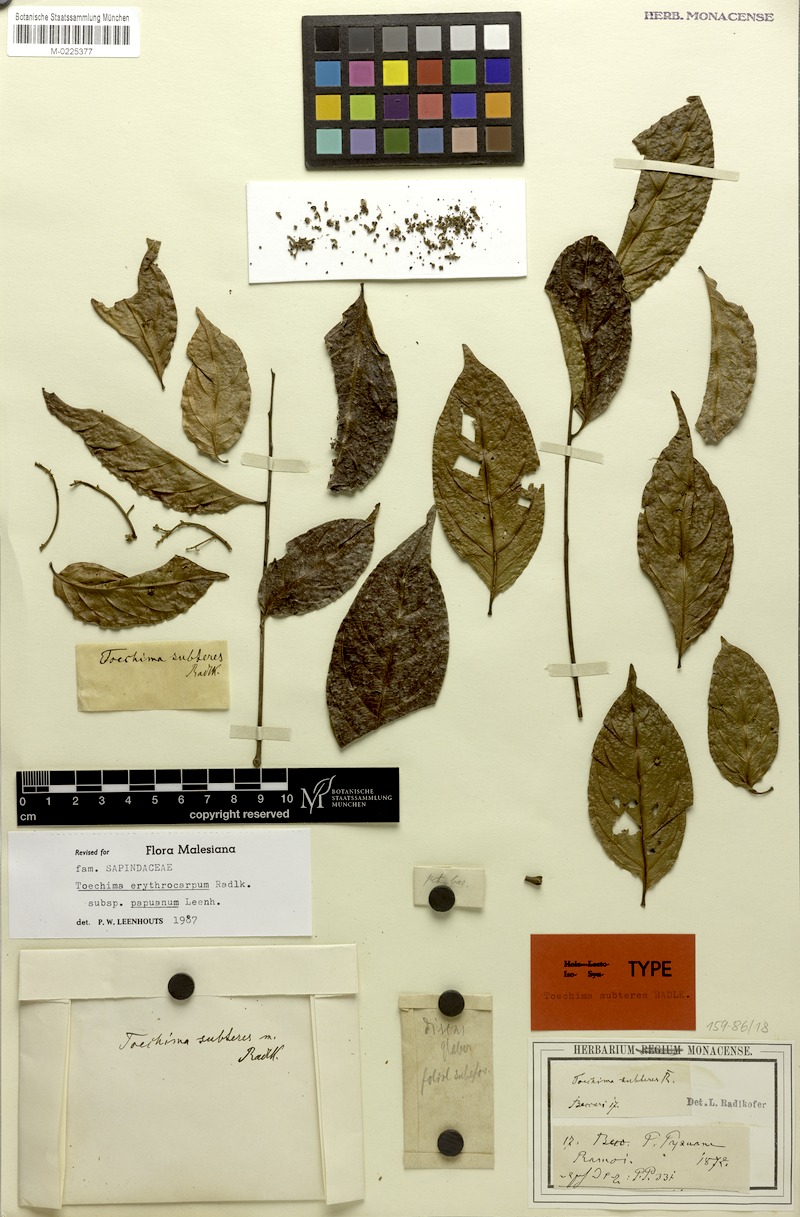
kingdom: Plantae
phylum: Tracheophyta
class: Magnoliopsida
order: Sapindales
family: Sapindaceae
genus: Toechima
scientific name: Toechima erythrocarpum
